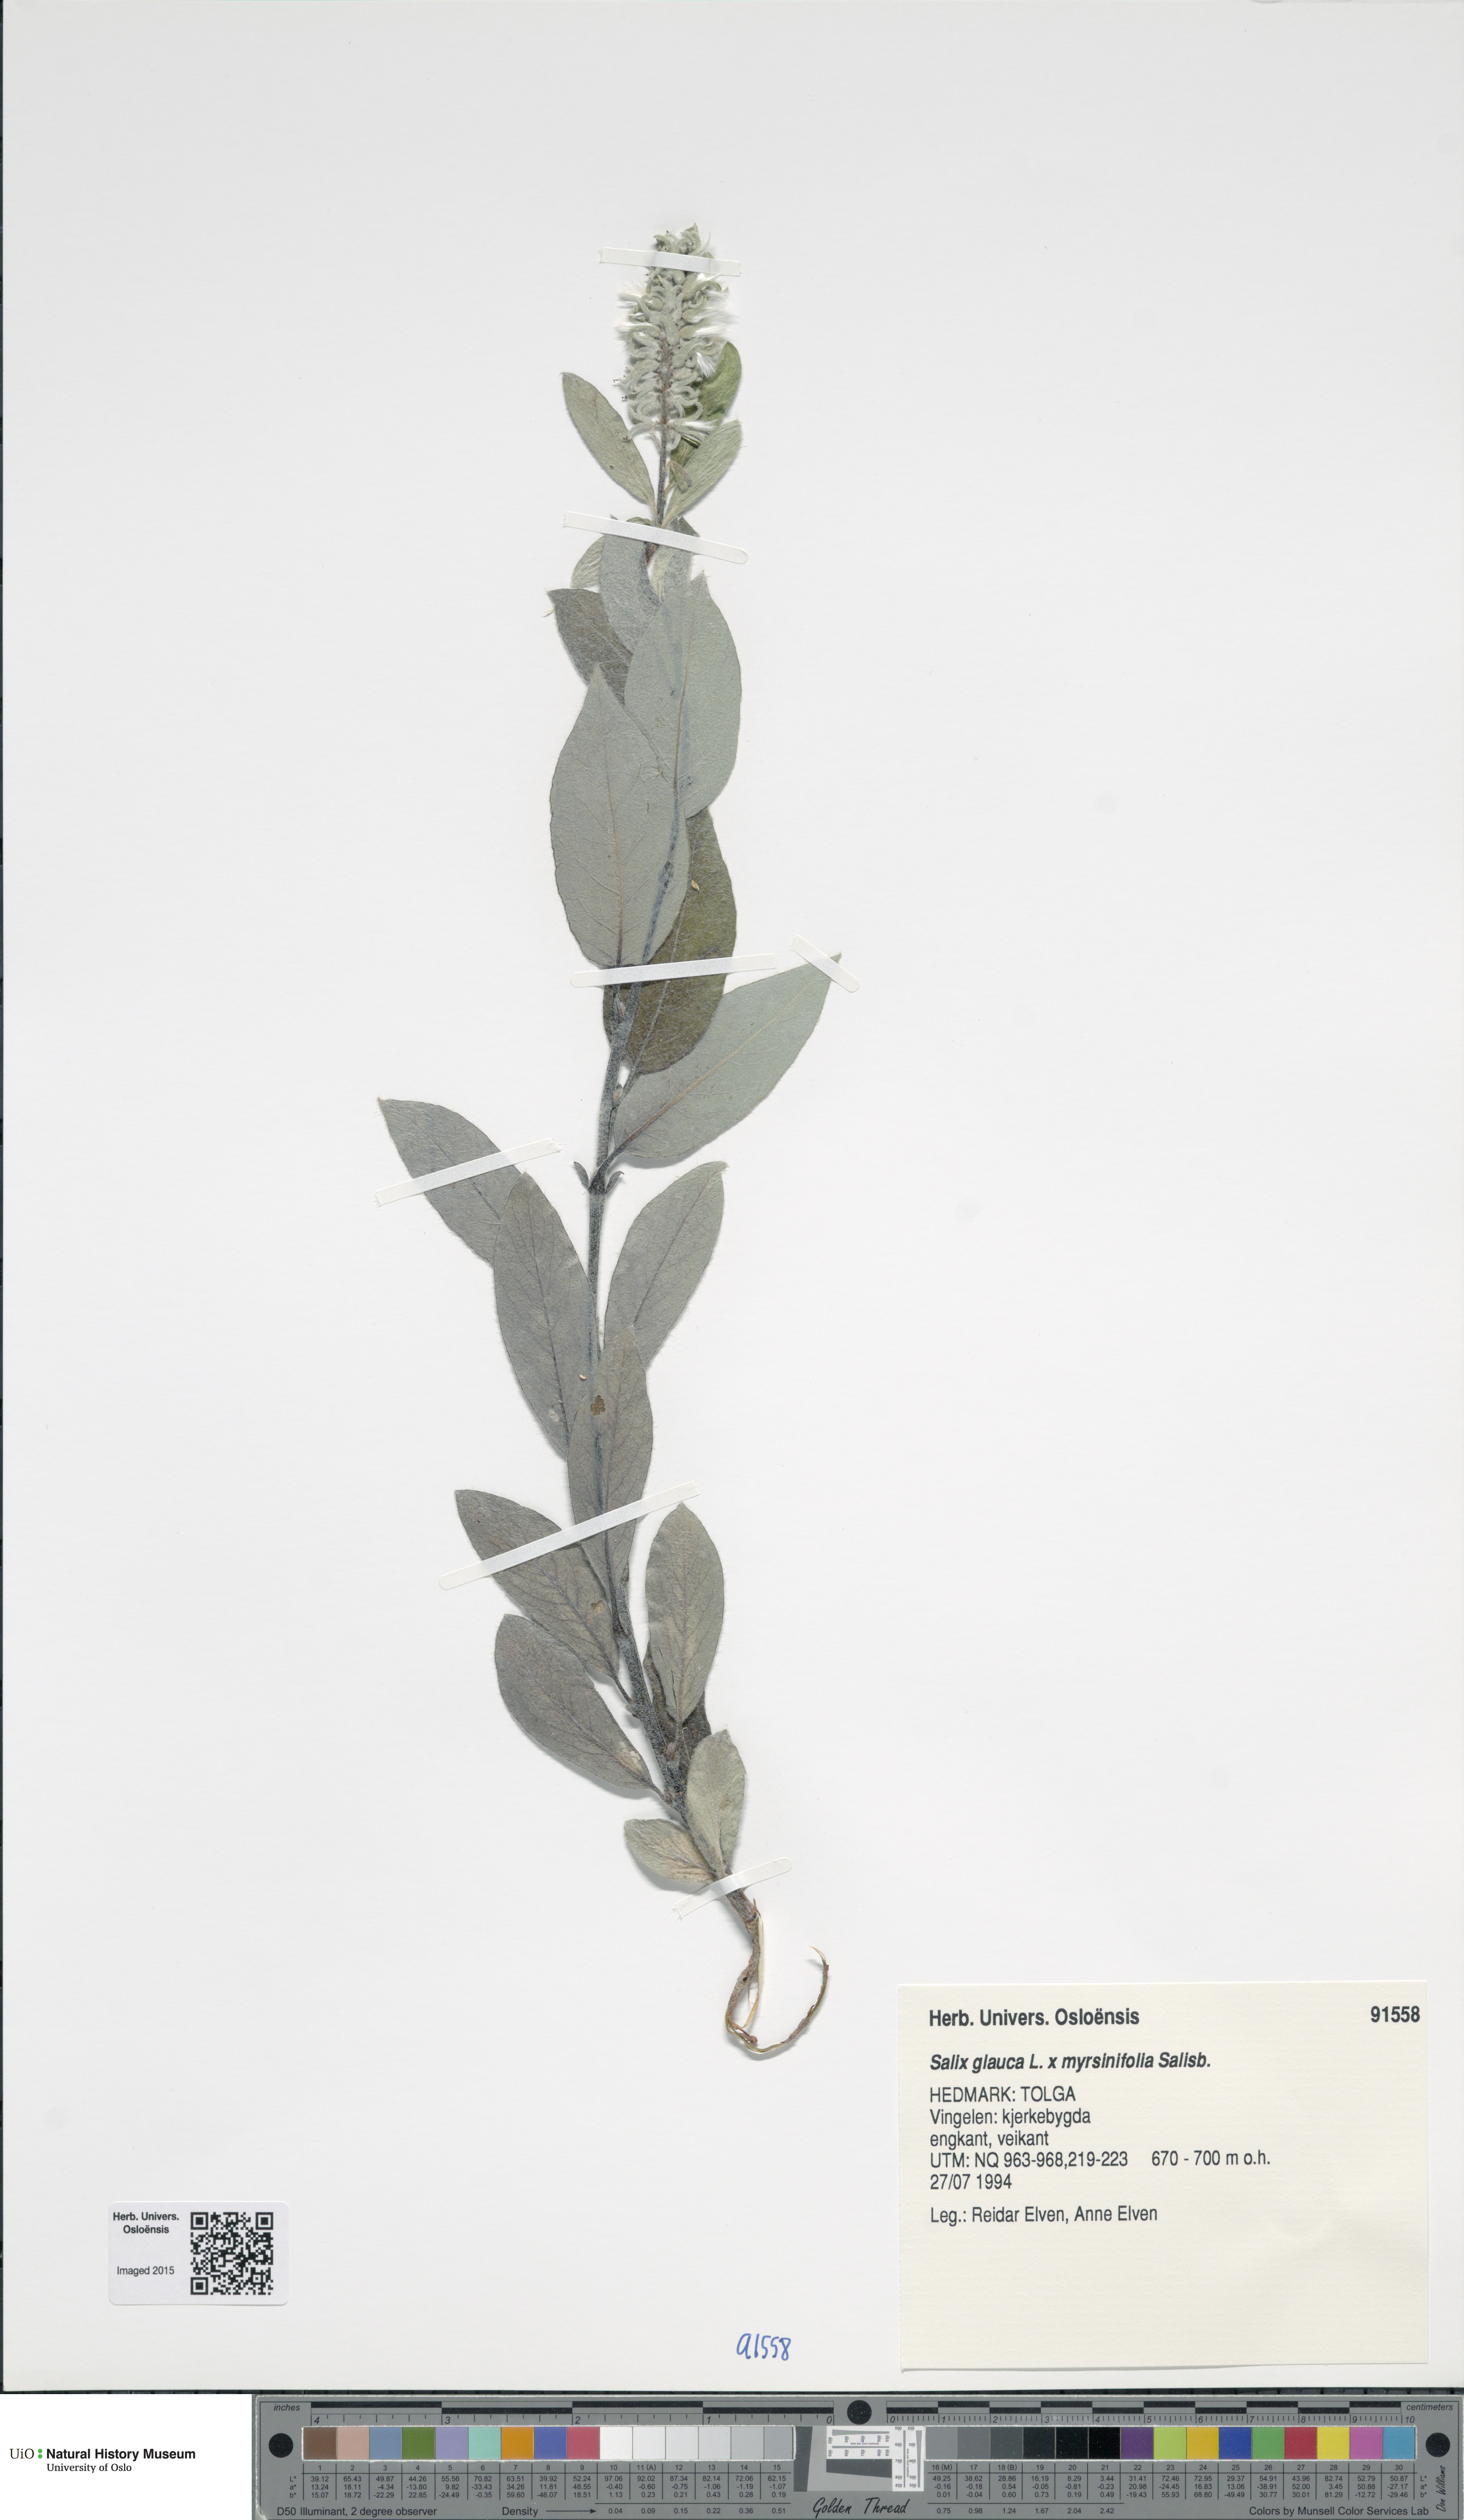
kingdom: Plantae
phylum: Tracheophyta
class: Magnoliopsida
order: Malpighiales
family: Salicaceae
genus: Salix
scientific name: Salix
